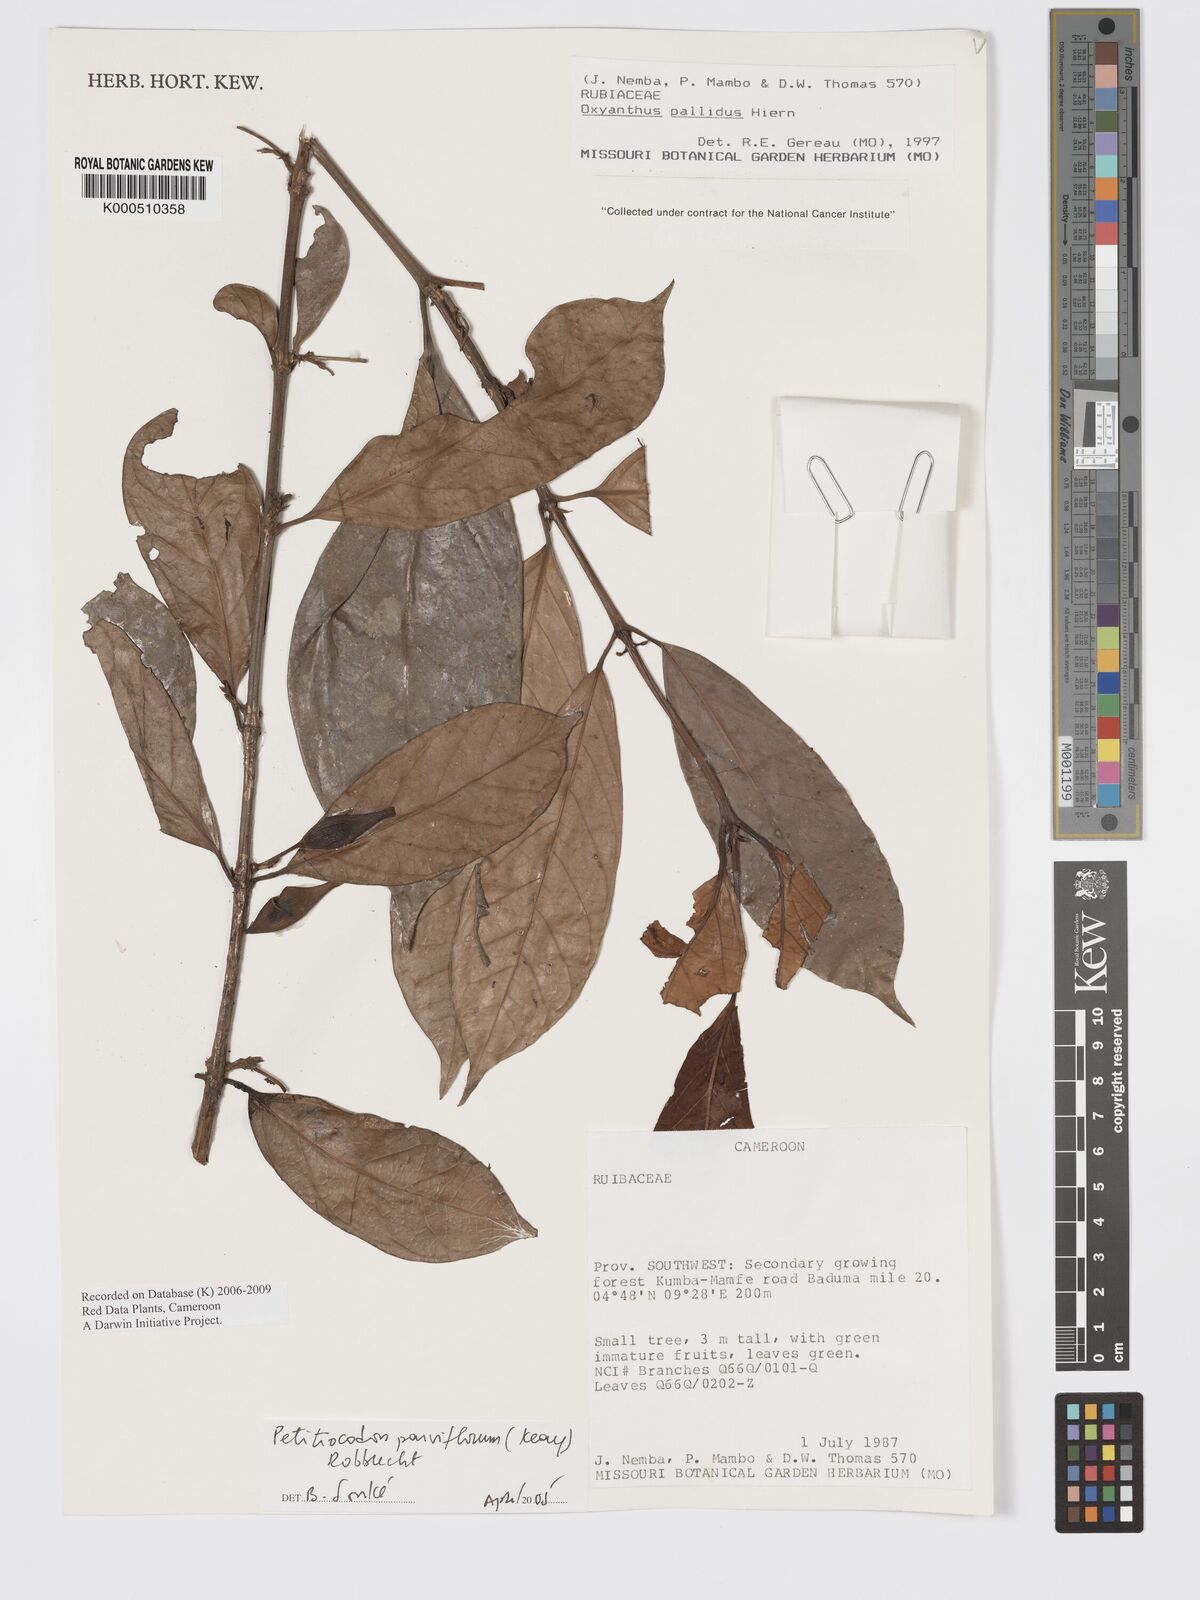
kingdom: Plantae
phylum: Tracheophyta
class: Magnoliopsida
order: Gentianales
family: Rubiaceae
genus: Petitiocodon
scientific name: Petitiocodon parviflorum
